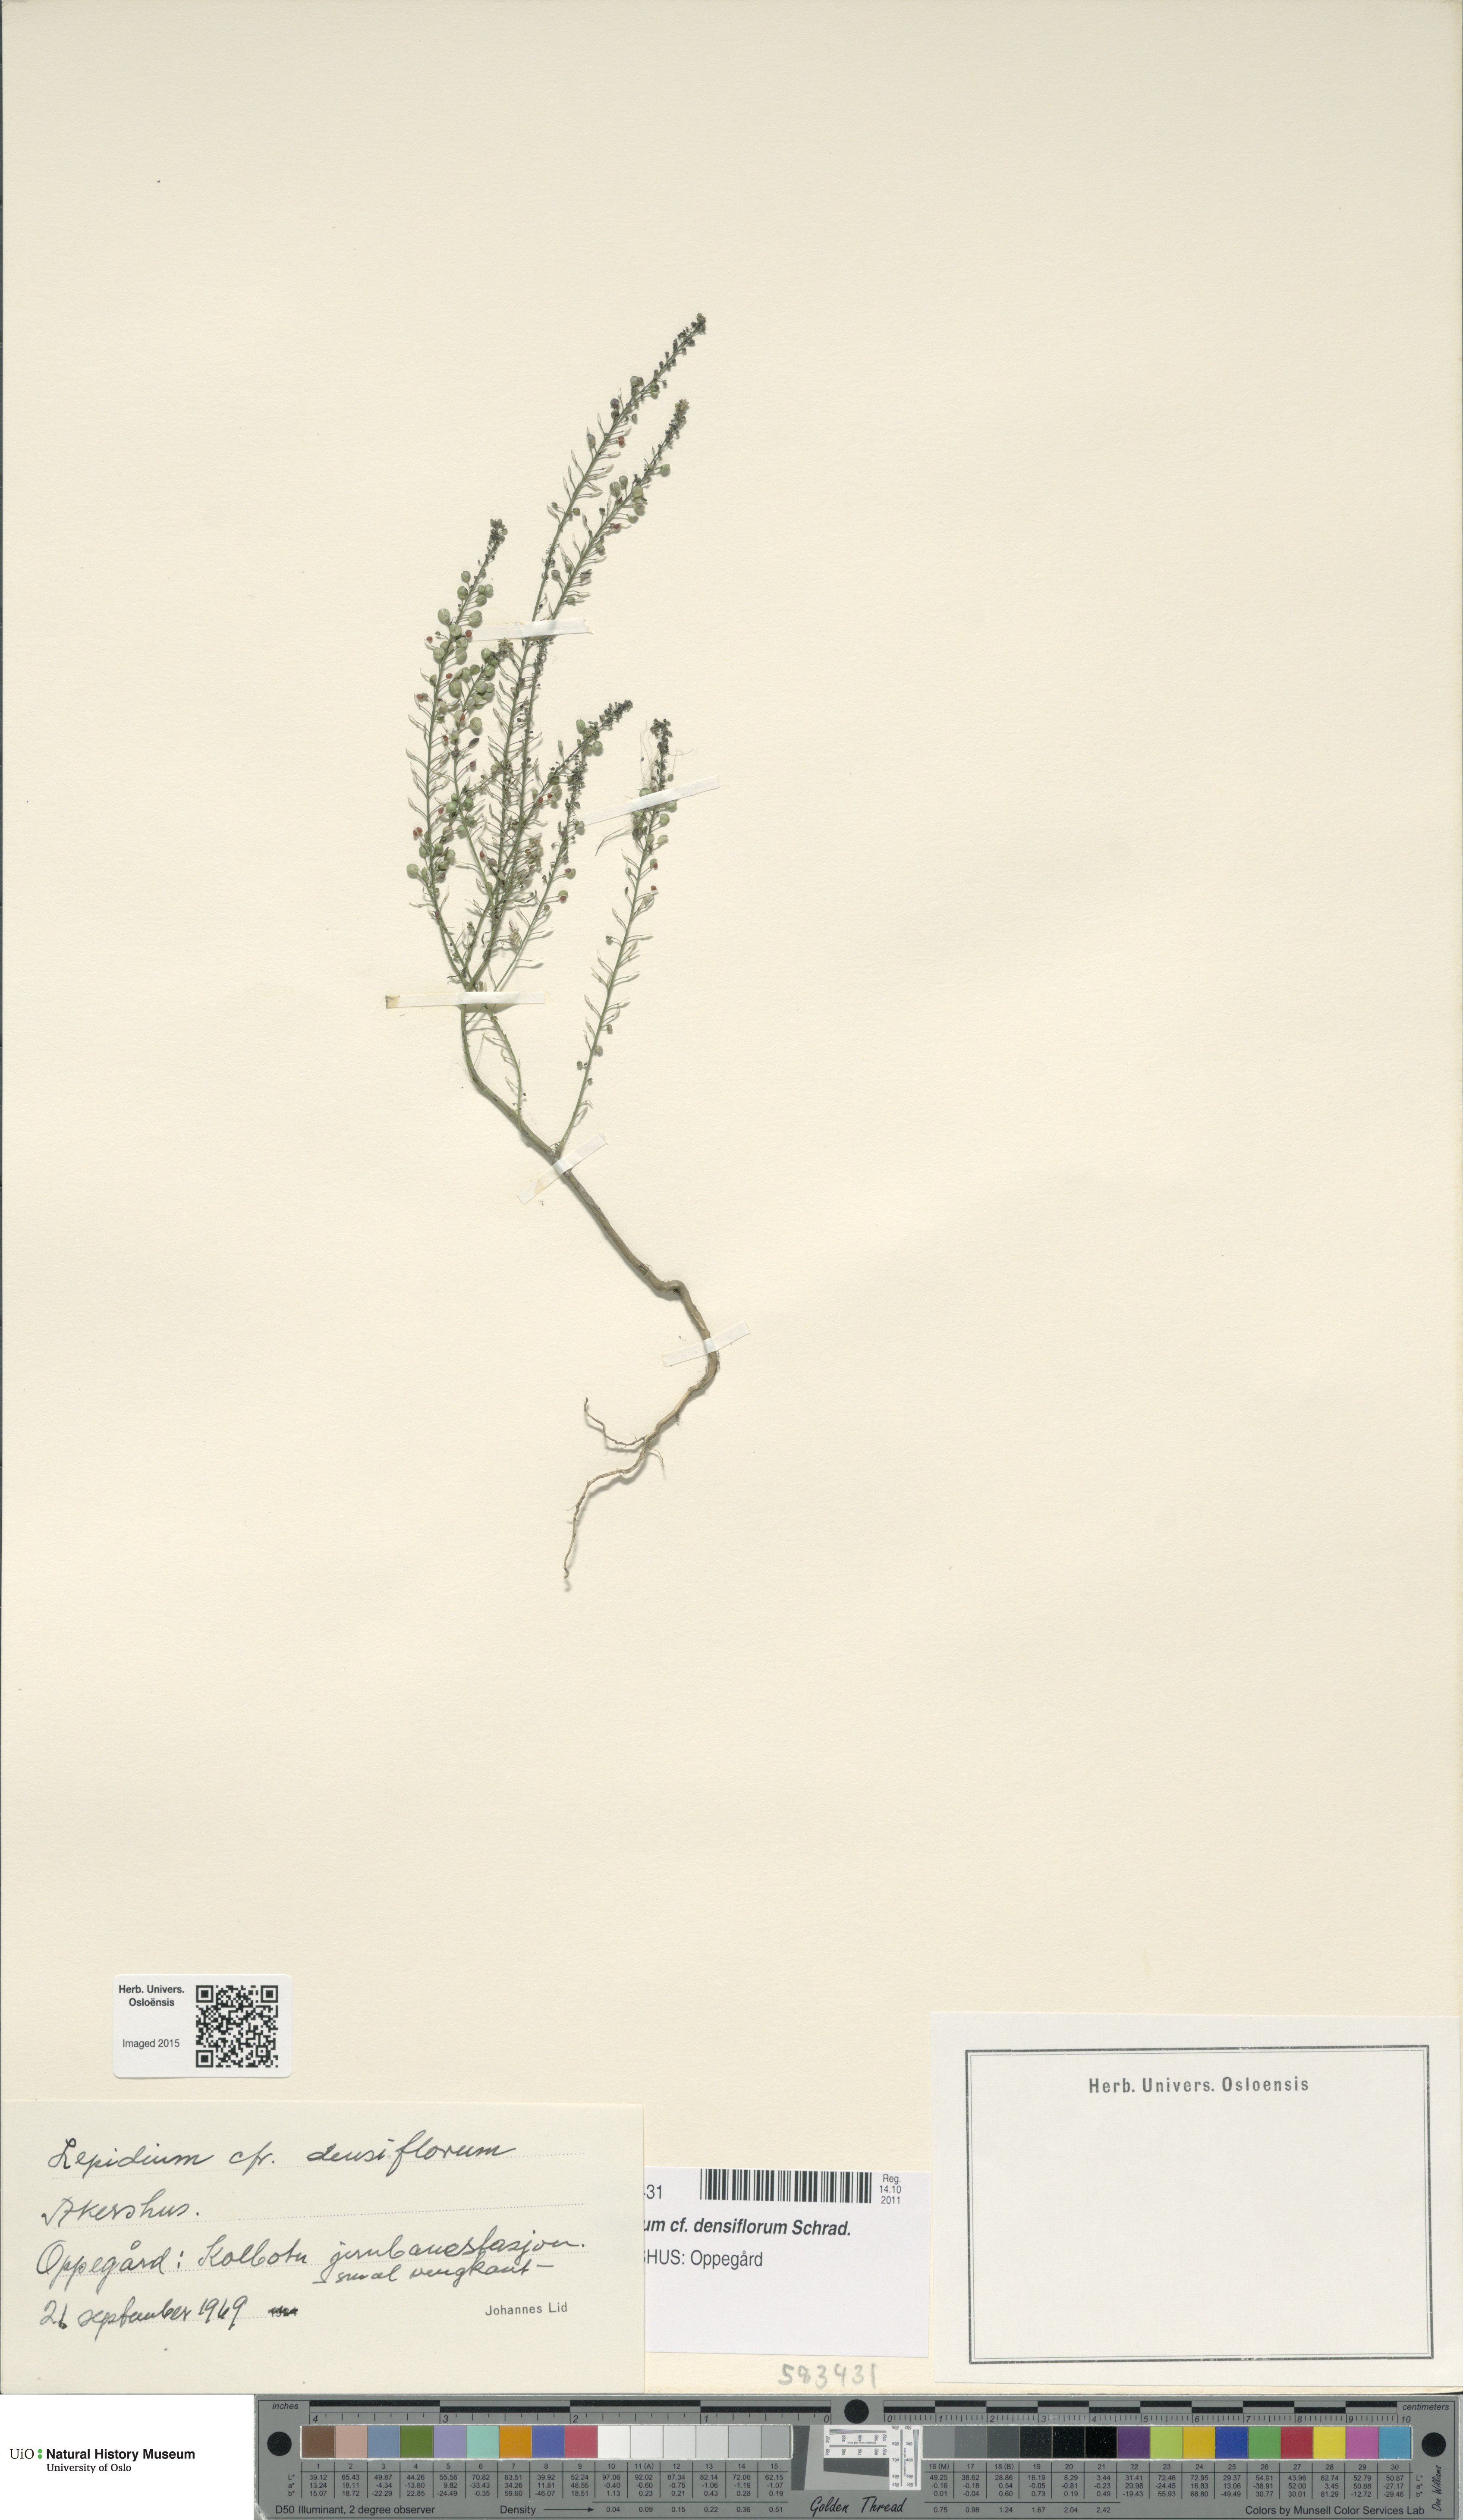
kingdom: Plantae
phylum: Tracheophyta
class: Magnoliopsida
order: Brassicales
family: Brassicaceae
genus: Lepidium
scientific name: Lepidium densiflorum
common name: Miner's pepperwort
